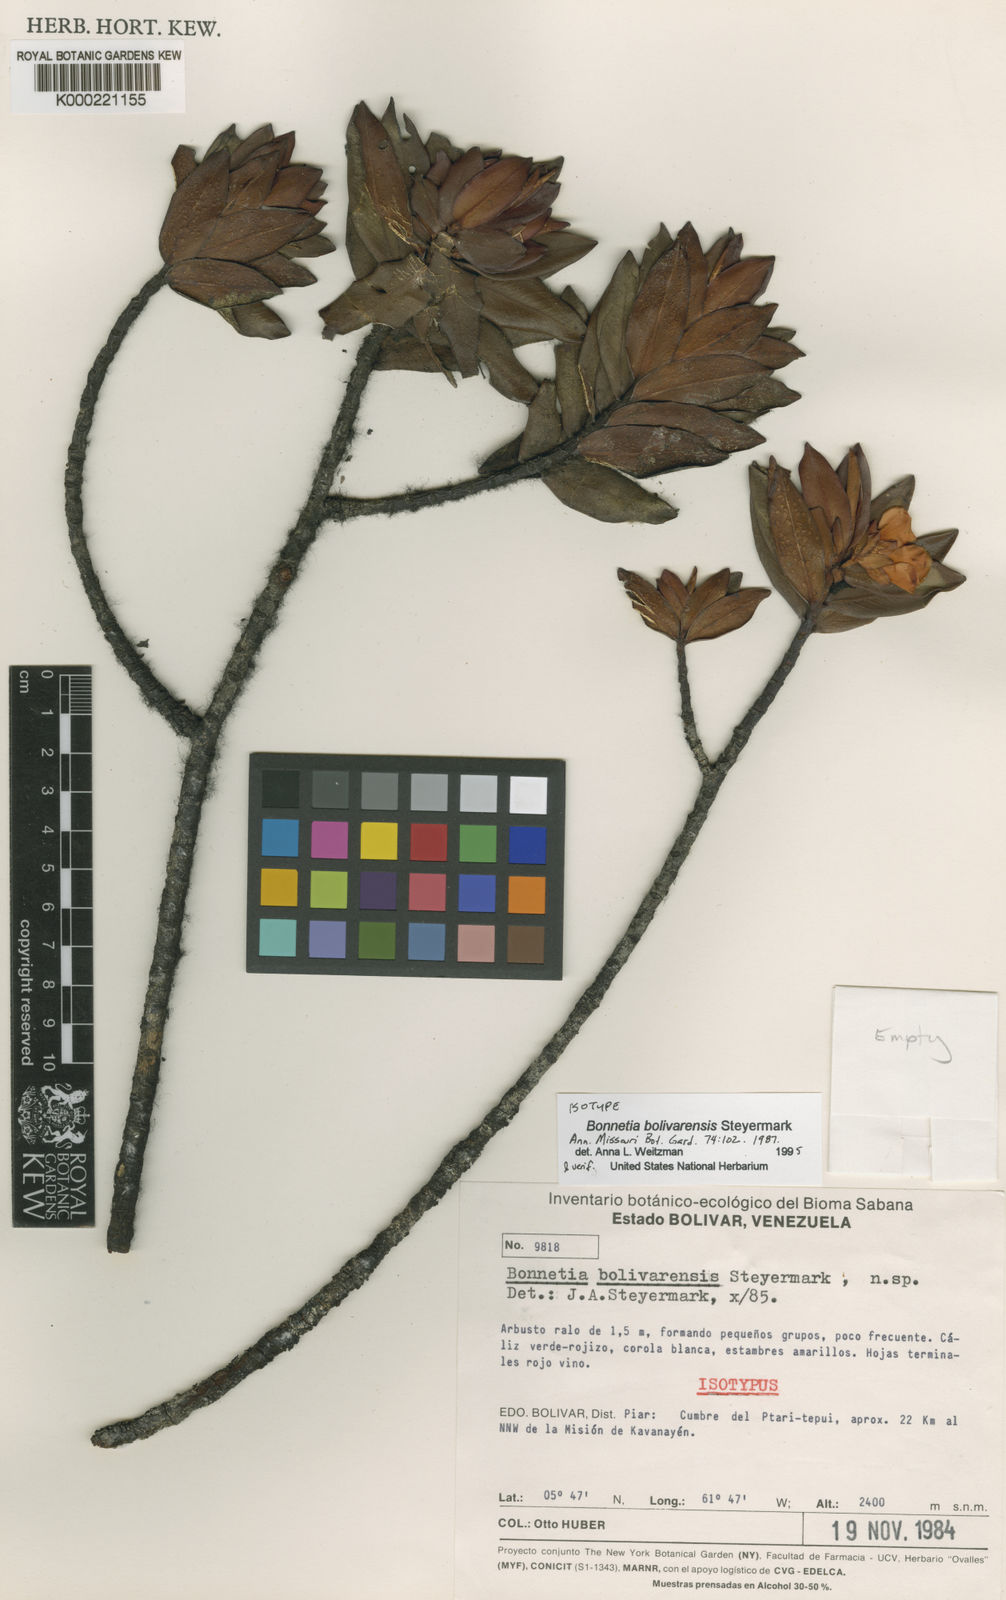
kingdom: Plantae
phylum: Tracheophyta
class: Magnoliopsida
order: Malpighiales
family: Bonnetiaceae
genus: Bonnetia
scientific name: Bonnetia bolivarensis
